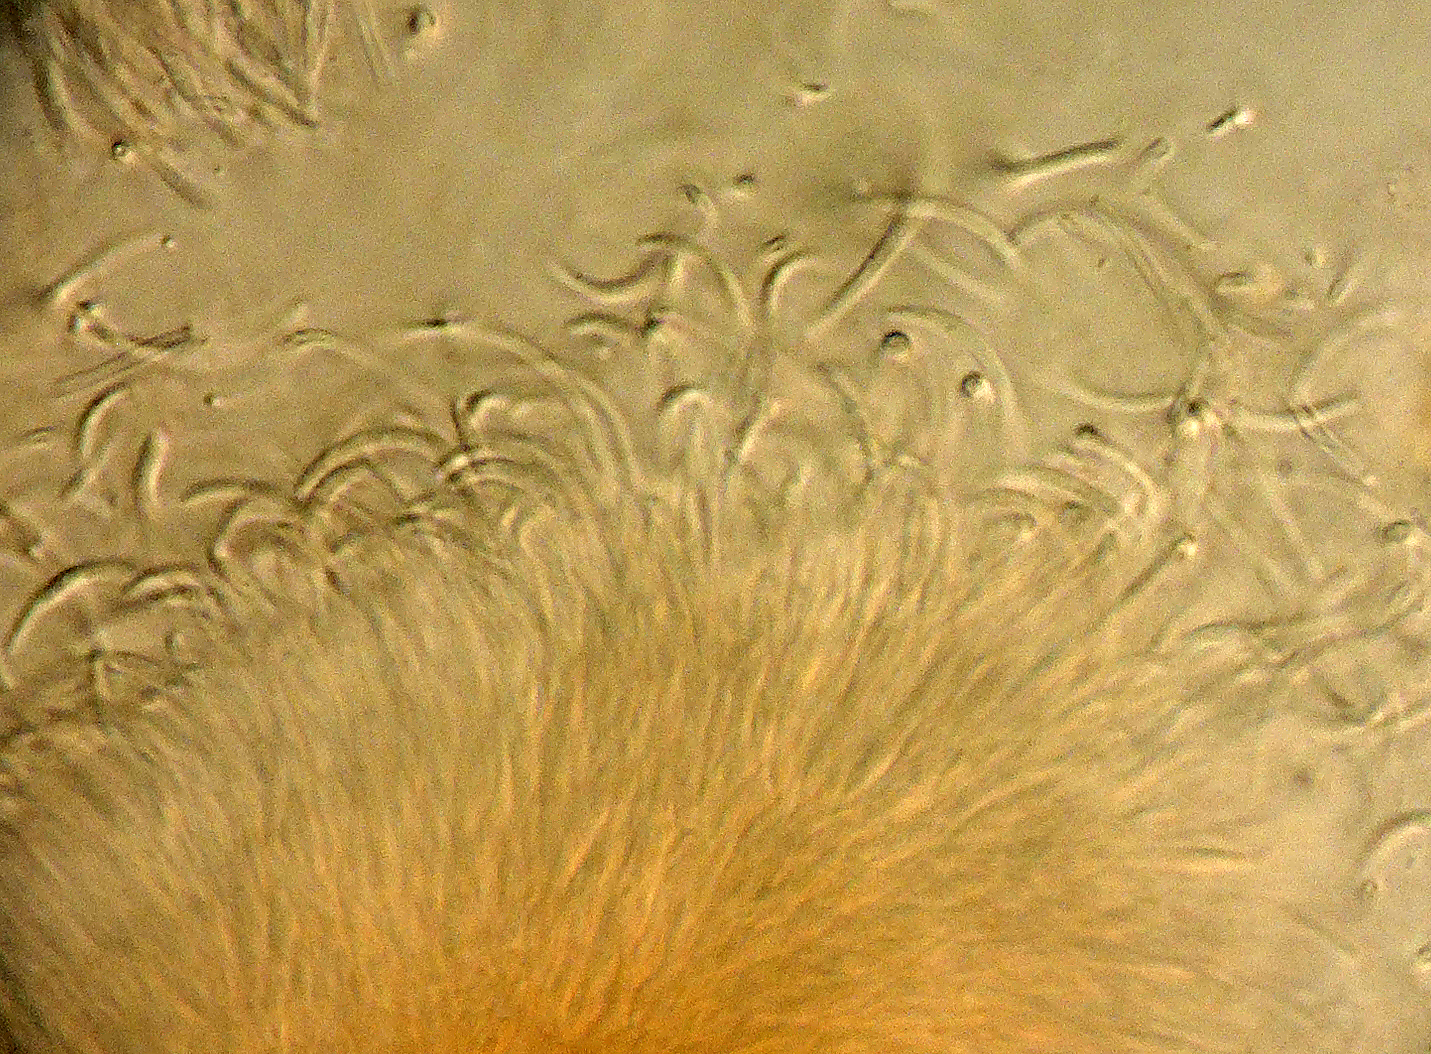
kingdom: Fungi
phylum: Ascomycota
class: Sordariomycetes
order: Diaporthales
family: Diaporthaceae
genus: Diaporthe
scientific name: Diaporthe coneglanensis
